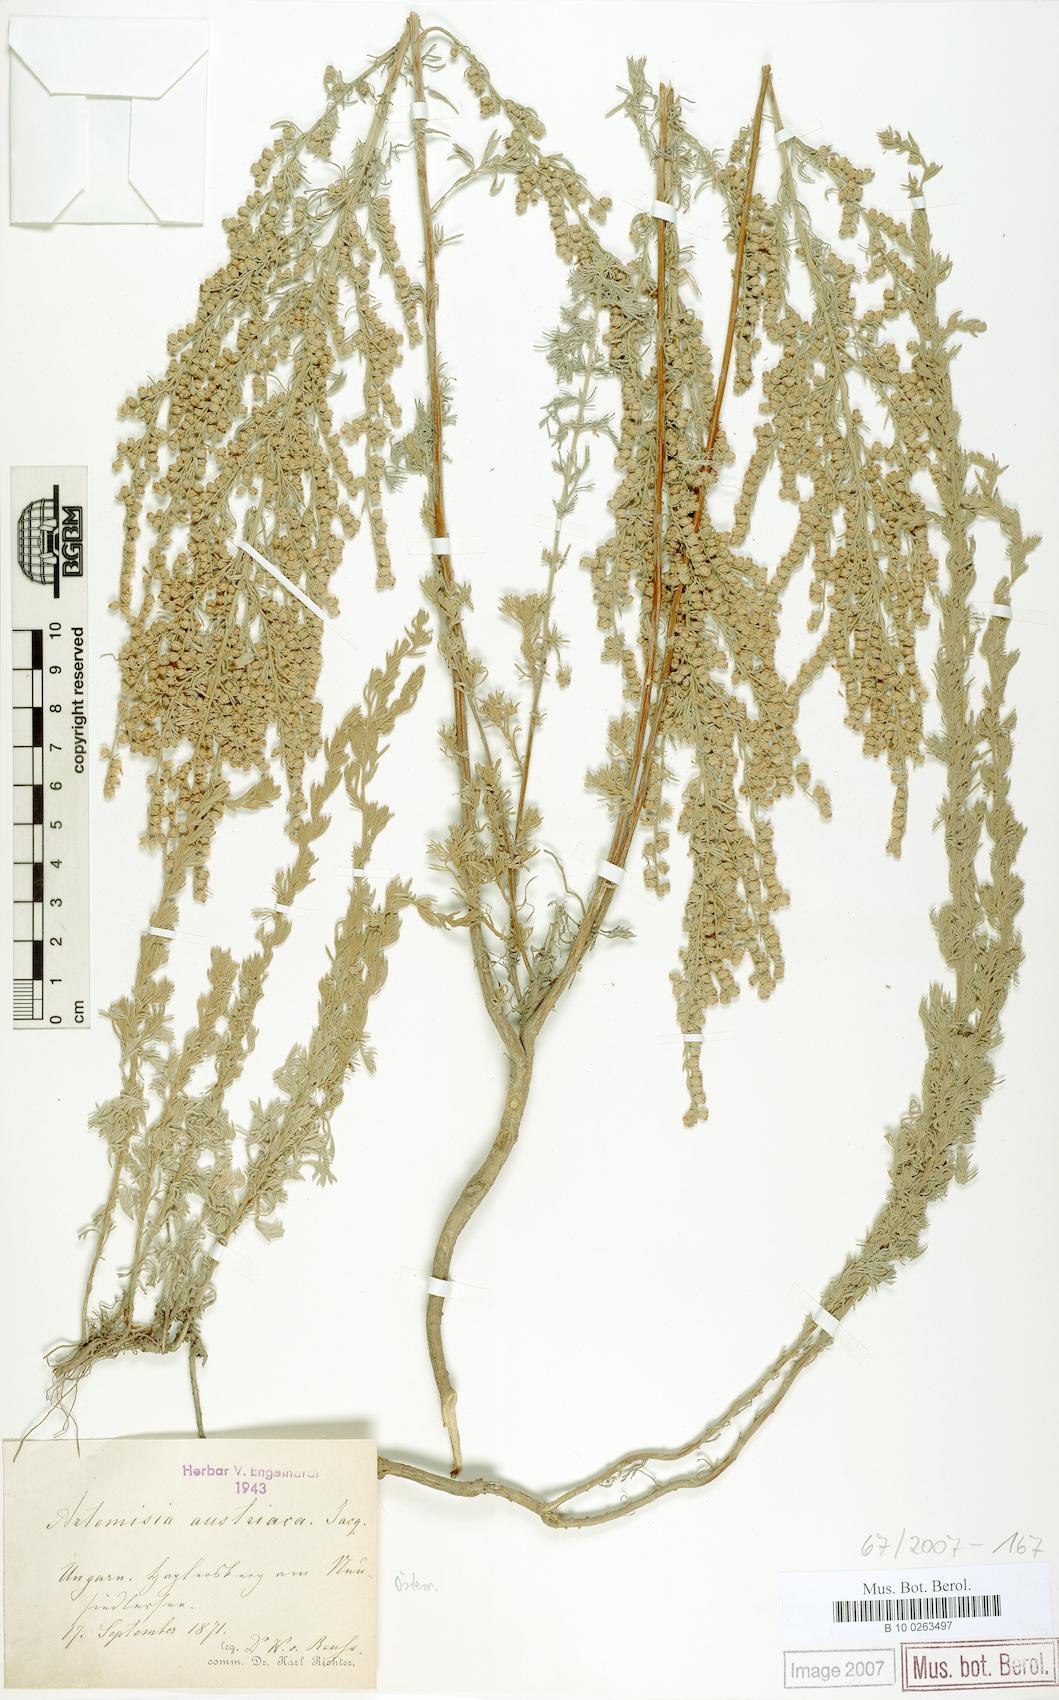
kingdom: Plantae
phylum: Tracheophyta
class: Magnoliopsida
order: Asterales
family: Asteraceae
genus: Artemisia
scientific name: Artemisia austriaca
